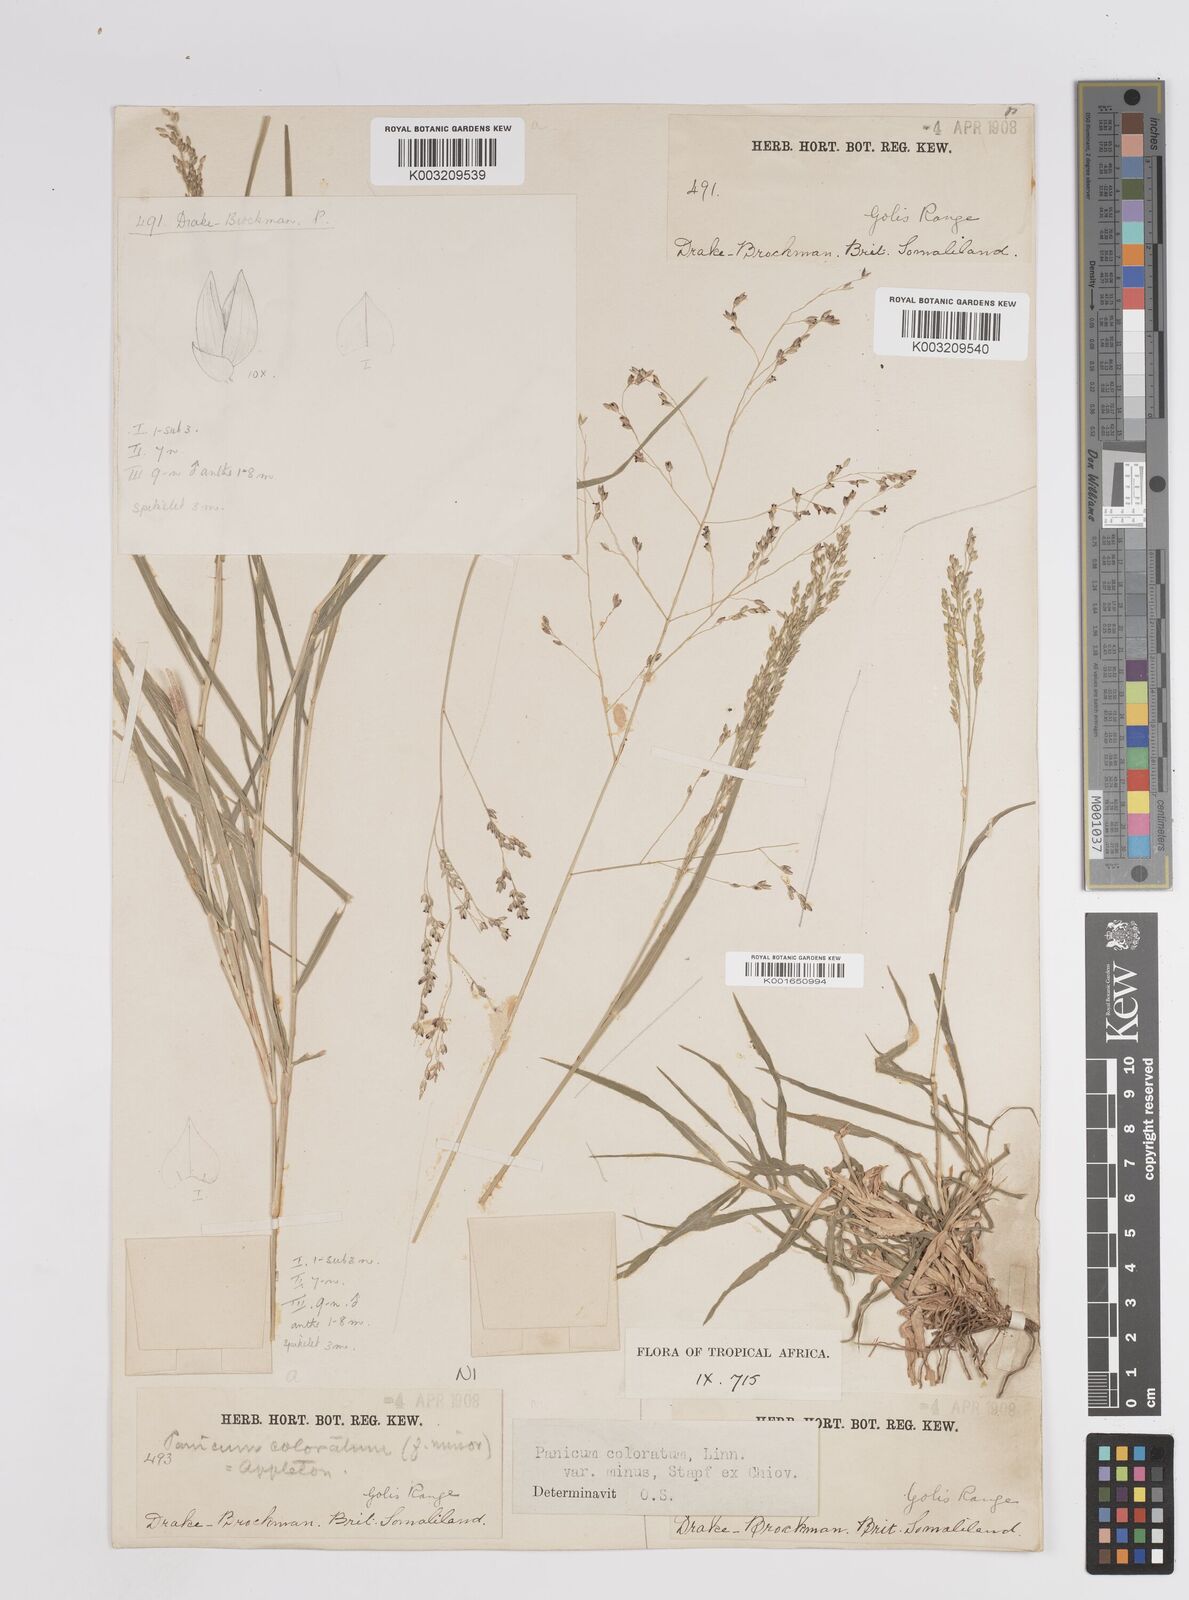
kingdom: Plantae
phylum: Tracheophyta
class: Liliopsida
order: Poales
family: Poaceae
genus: Panicum
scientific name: Panicum coloratum
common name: Kleingrass
